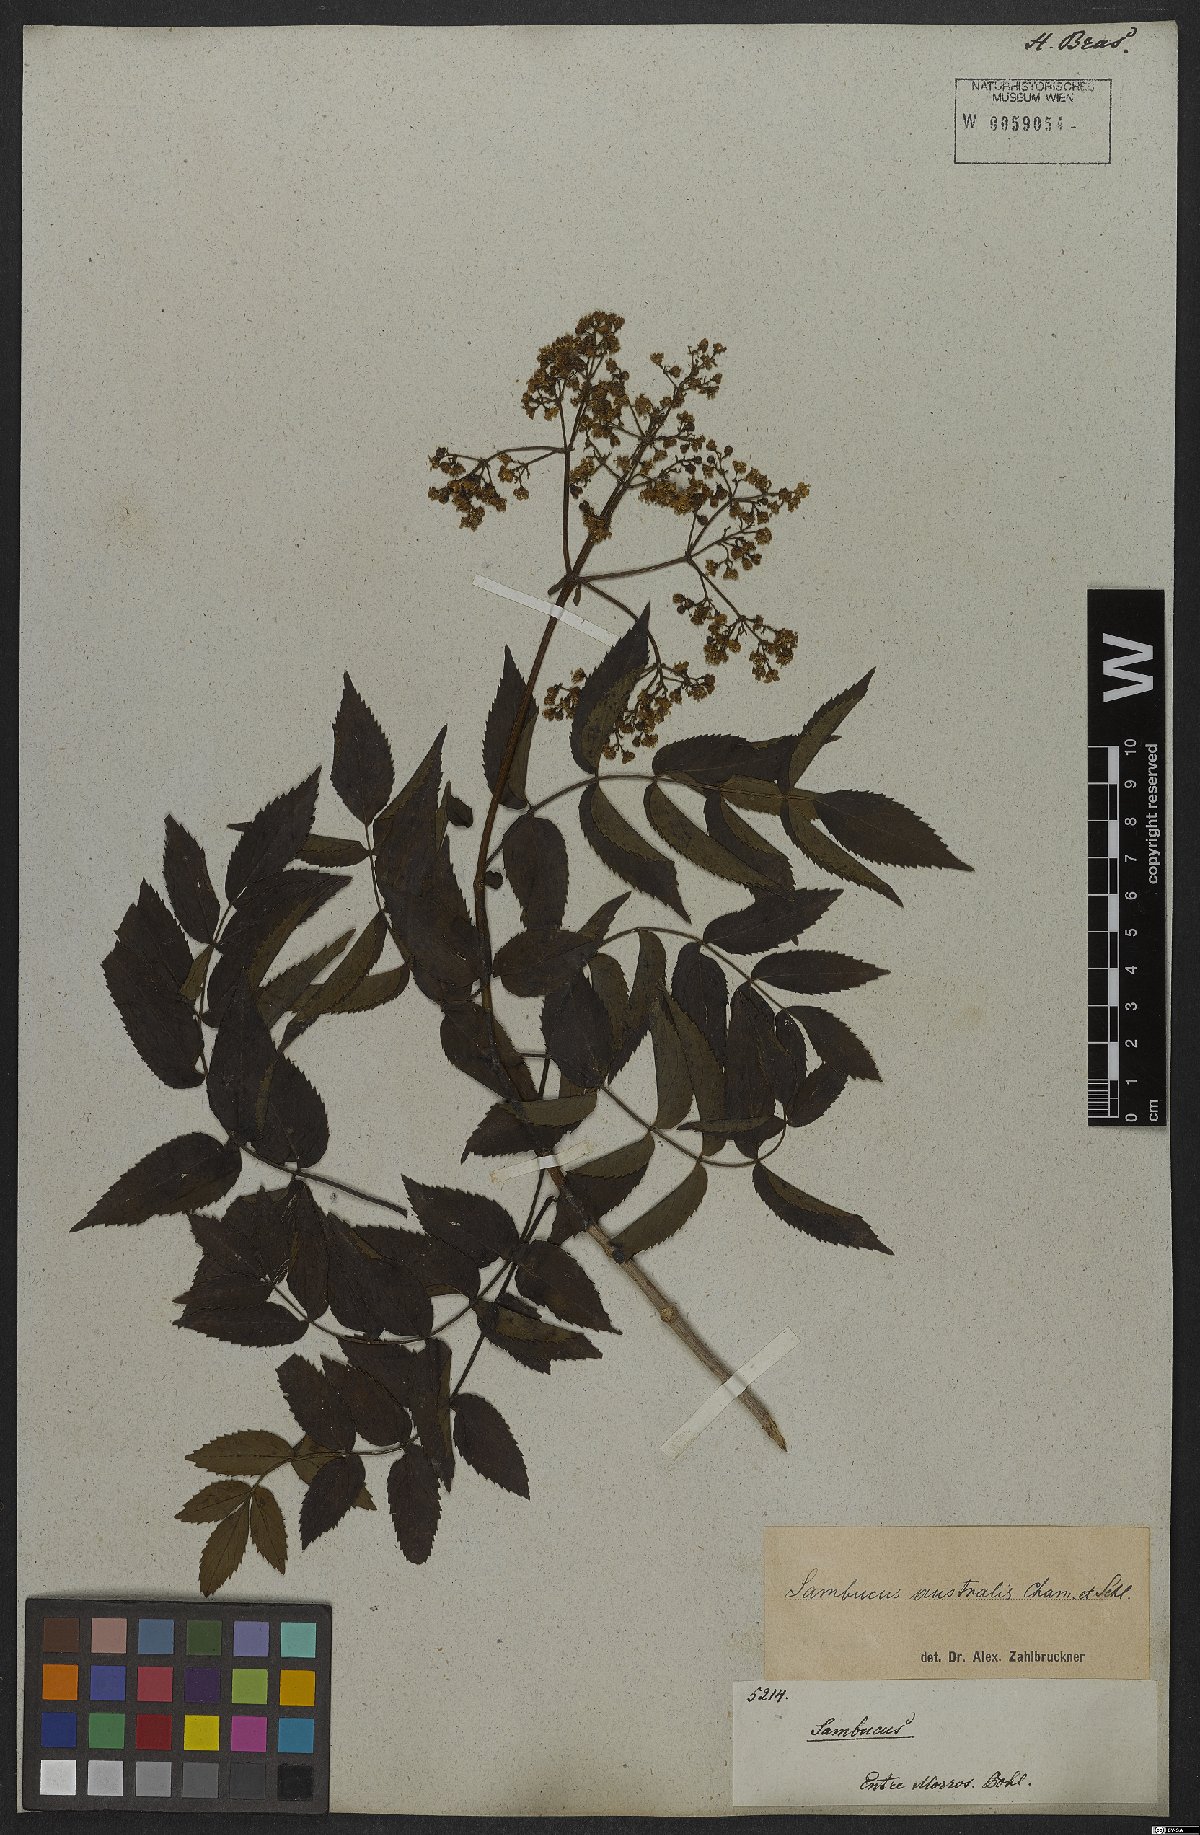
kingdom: Plantae
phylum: Tracheophyta
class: Magnoliopsida
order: Dipsacales
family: Viburnaceae
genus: Sambucus
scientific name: Sambucus australis
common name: Southern elder
